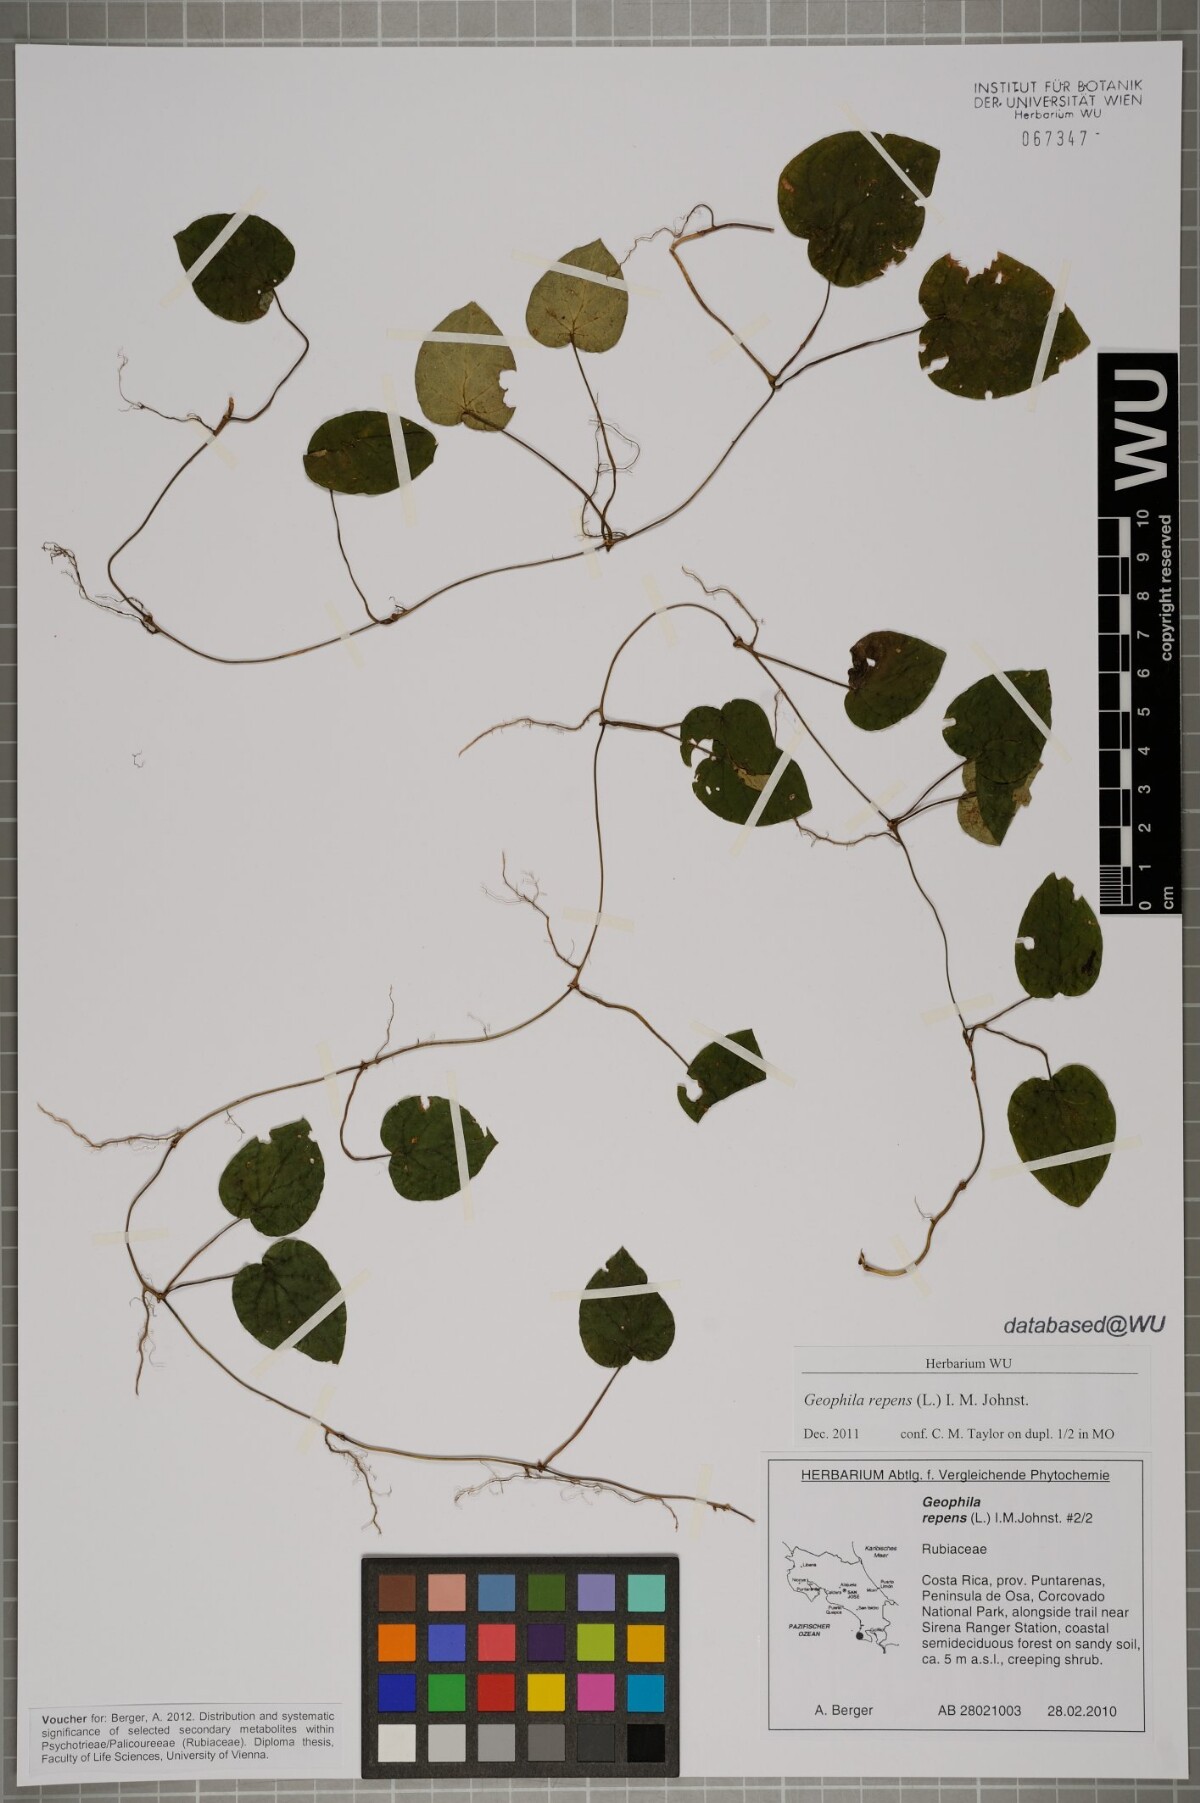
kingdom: Plantae
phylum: Tracheophyta
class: Magnoliopsida
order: Gentianales
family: Rubiaceae
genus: Geophila
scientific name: Geophila repens
